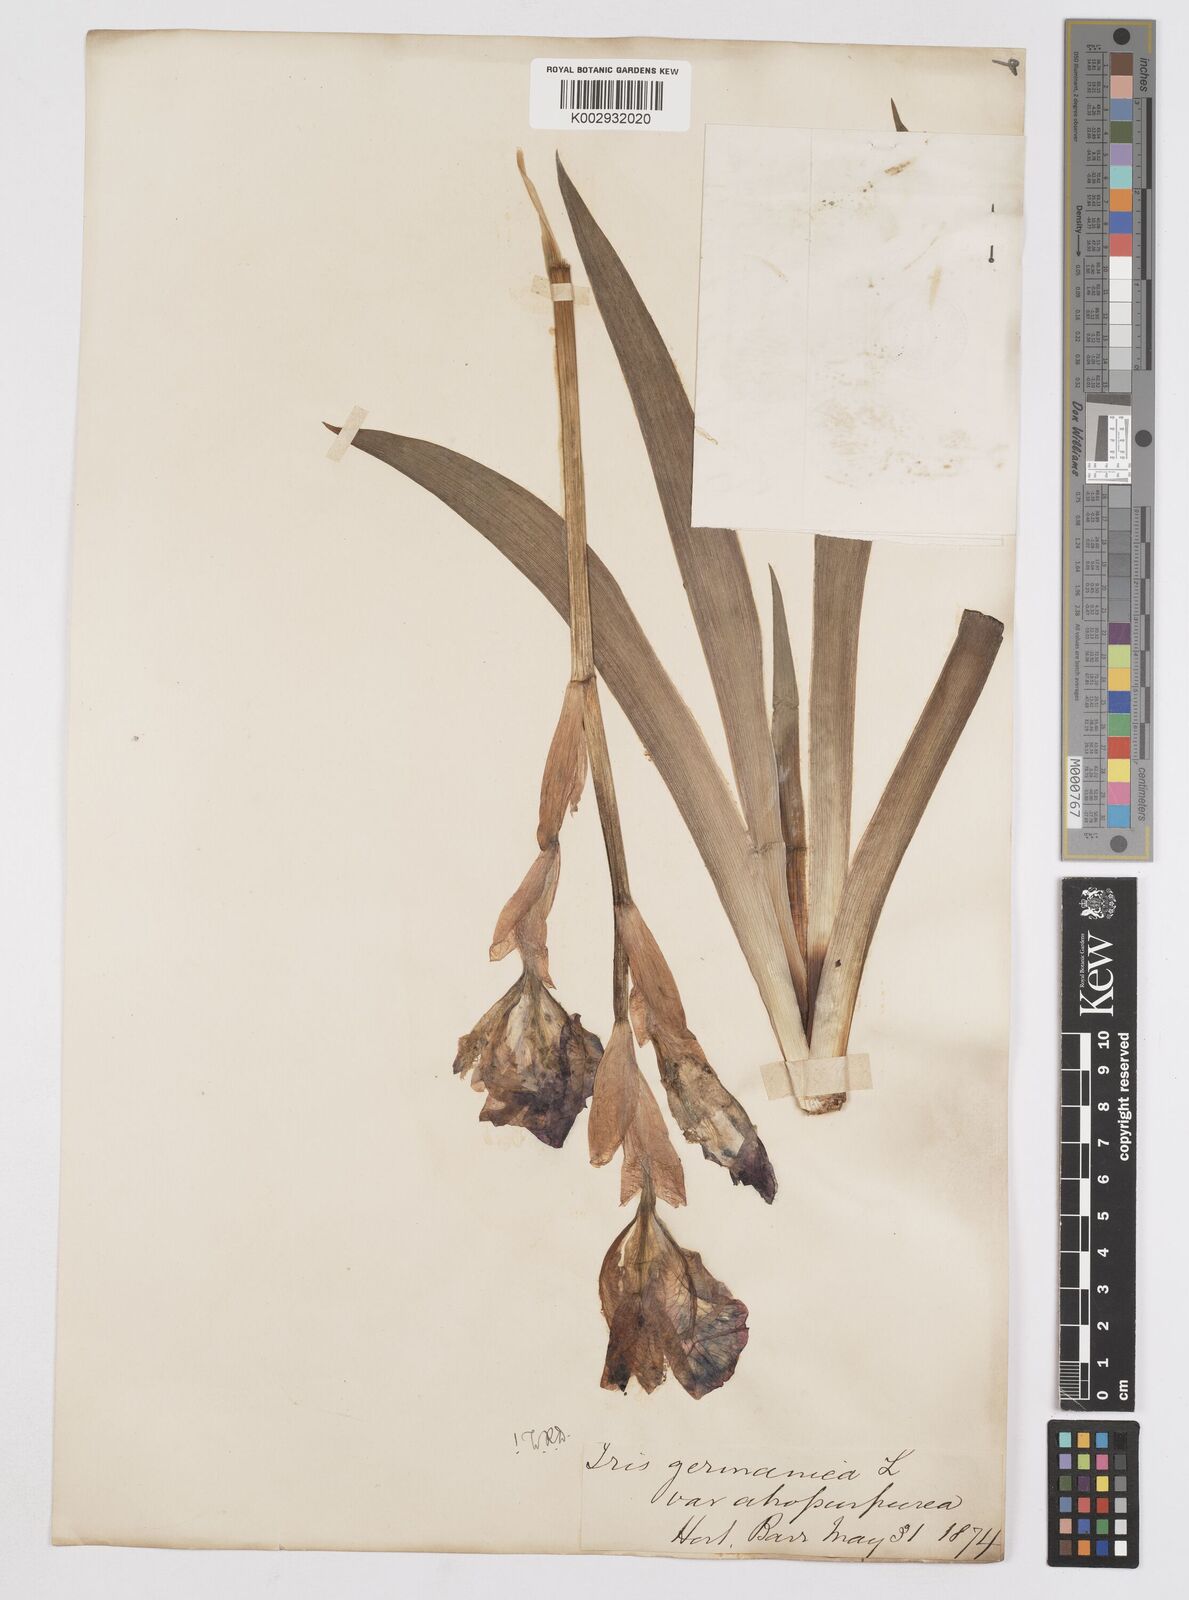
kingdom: Plantae
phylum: Tracheophyta
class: Liliopsida
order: Asparagales
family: Iridaceae
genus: Iris
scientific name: Iris germanica
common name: German iris
